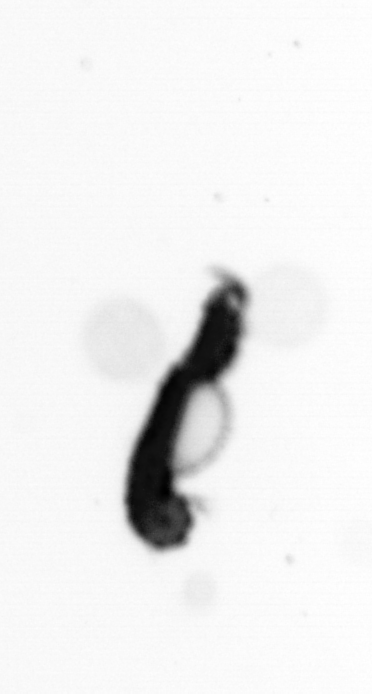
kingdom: Animalia
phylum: Annelida
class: Polychaeta
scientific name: Polychaeta
